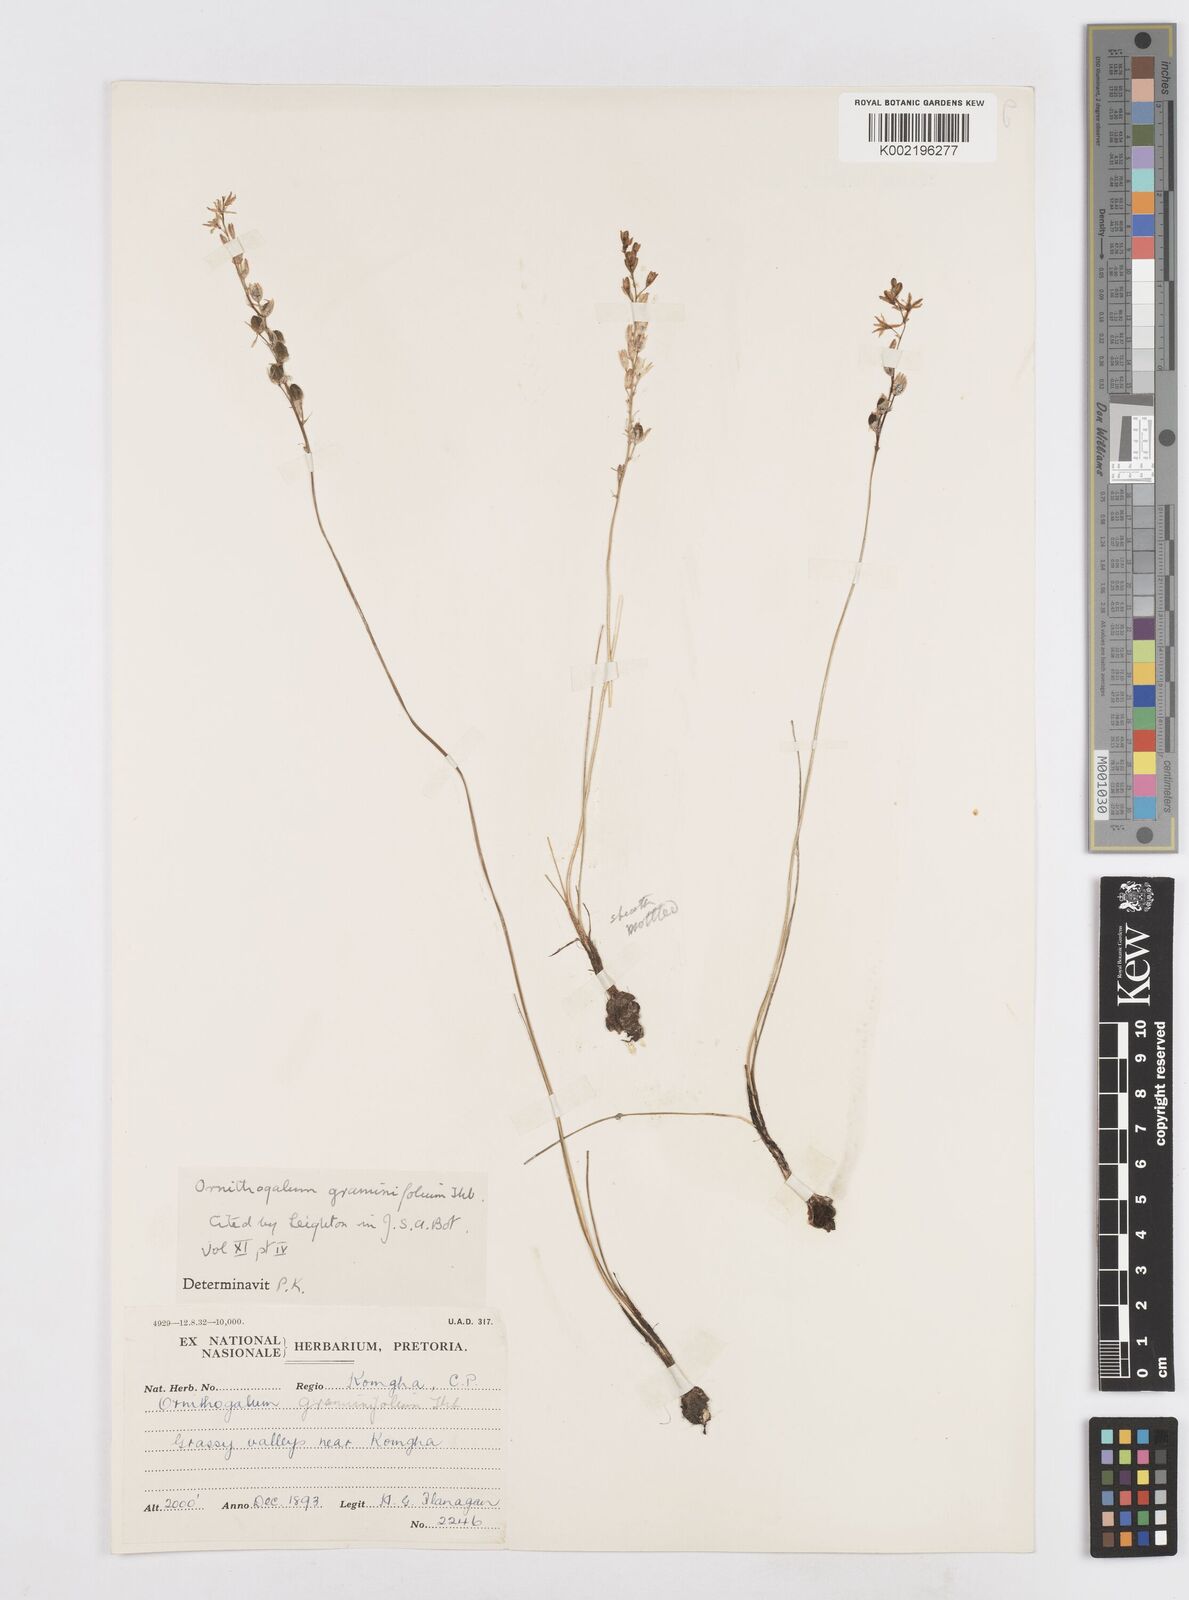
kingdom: Plantae
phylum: Tracheophyta
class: Liliopsida
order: Asparagales
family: Asparagaceae
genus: Ornithogalum
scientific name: Ornithogalum graminifolium
